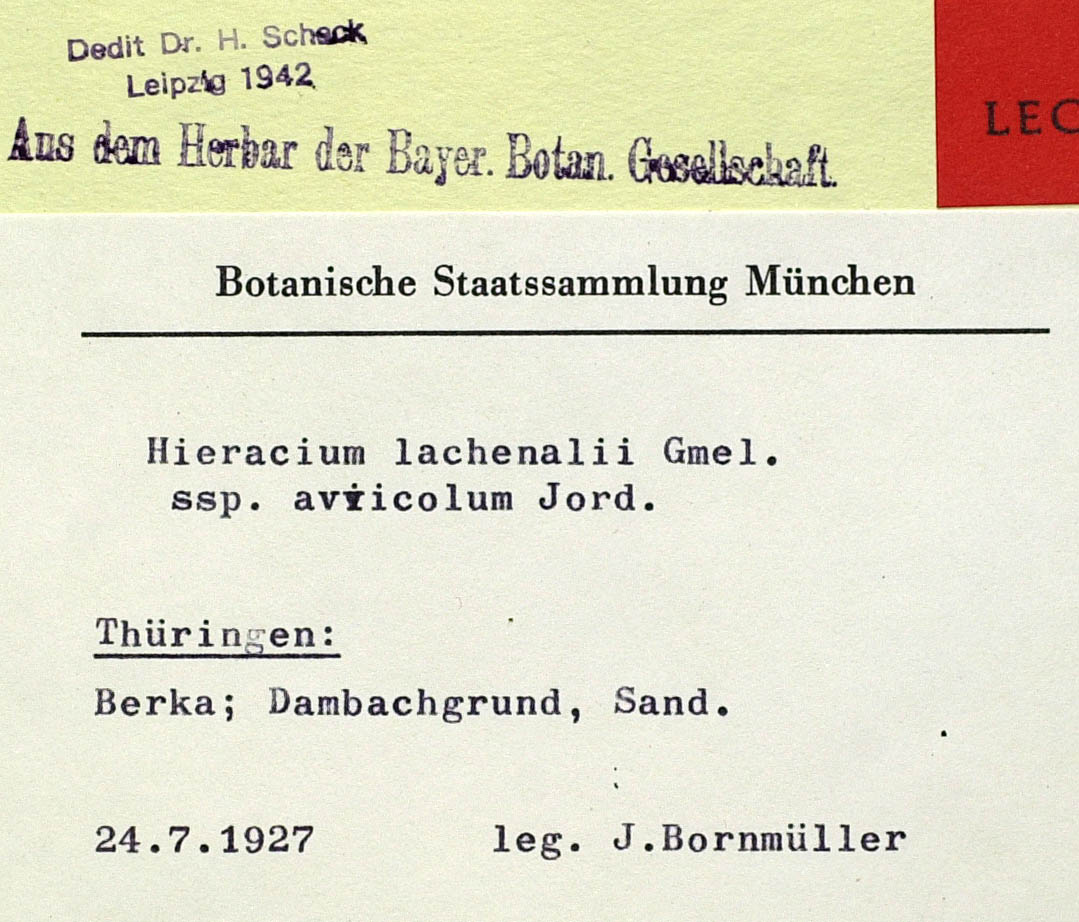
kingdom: Plantae
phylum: Tracheophyta
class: Magnoliopsida
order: Asterales
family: Asteraceae
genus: Hieracium
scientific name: Hieracium lachenalii
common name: Common hawkweed
